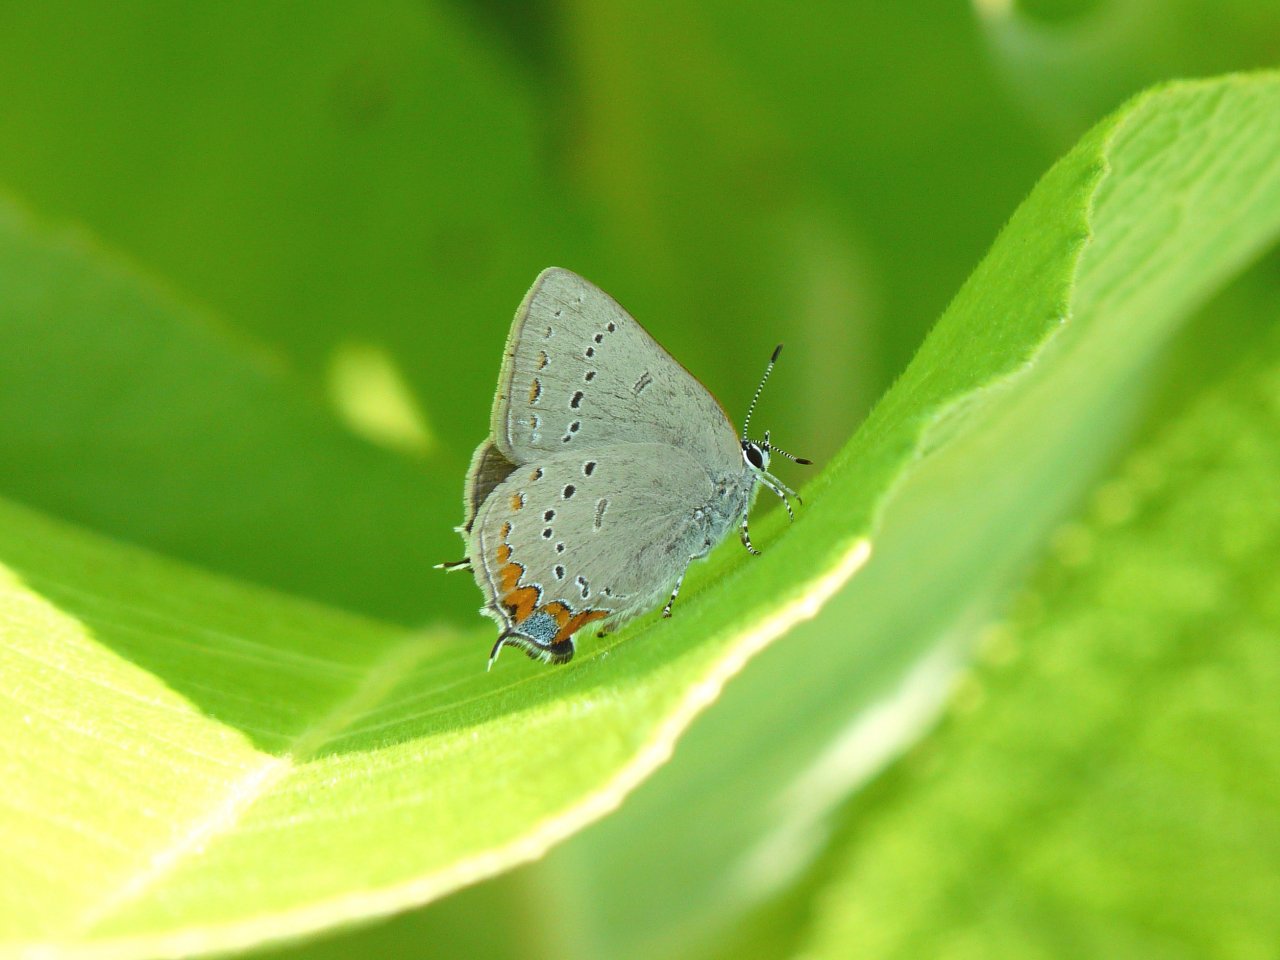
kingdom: Animalia
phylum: Arthropoda
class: Insecta
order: Lepidoptera
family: Lycaenidae
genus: Strymon
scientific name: Strymon acadica
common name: Acadian Hairstreak
